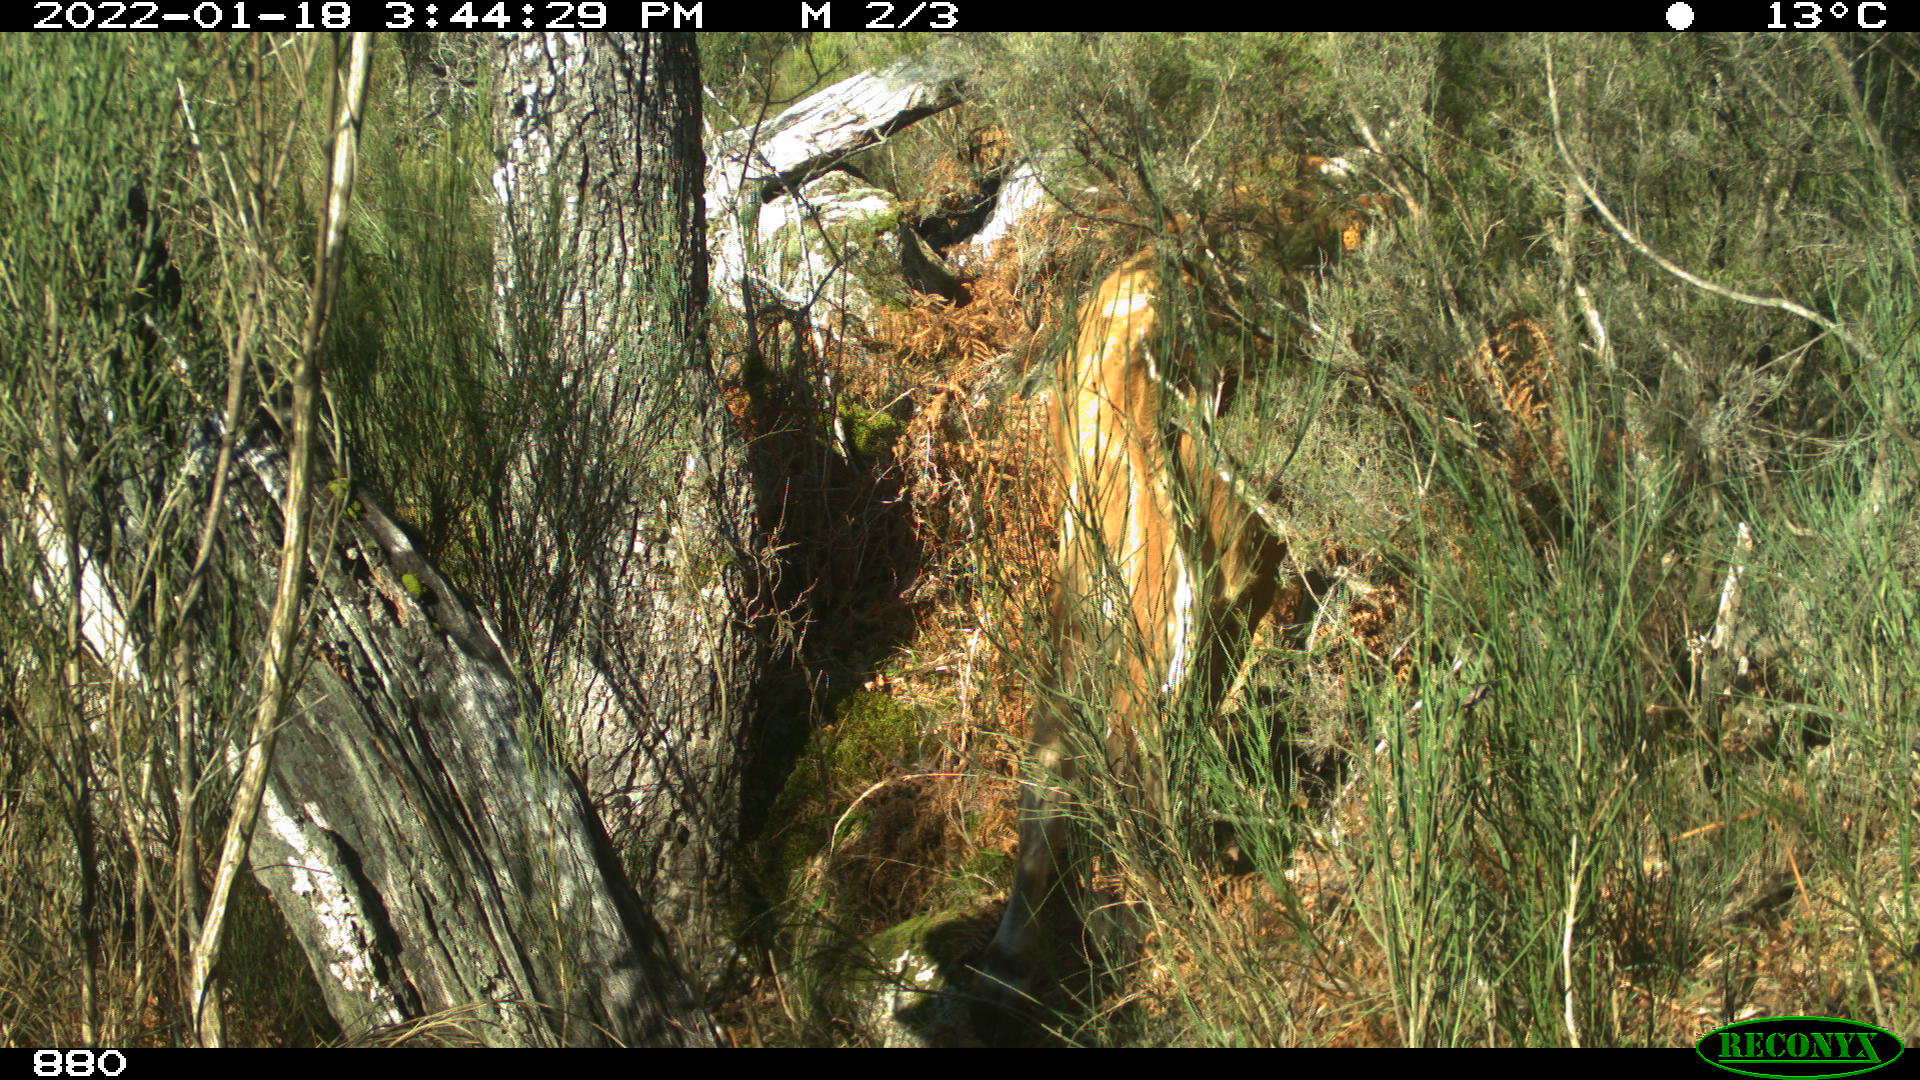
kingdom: Animalia
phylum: Chordata
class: Mammalia
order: Artiodactyla
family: Bovidae
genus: Bos
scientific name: Bos taurus
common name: Domesticated cattle
